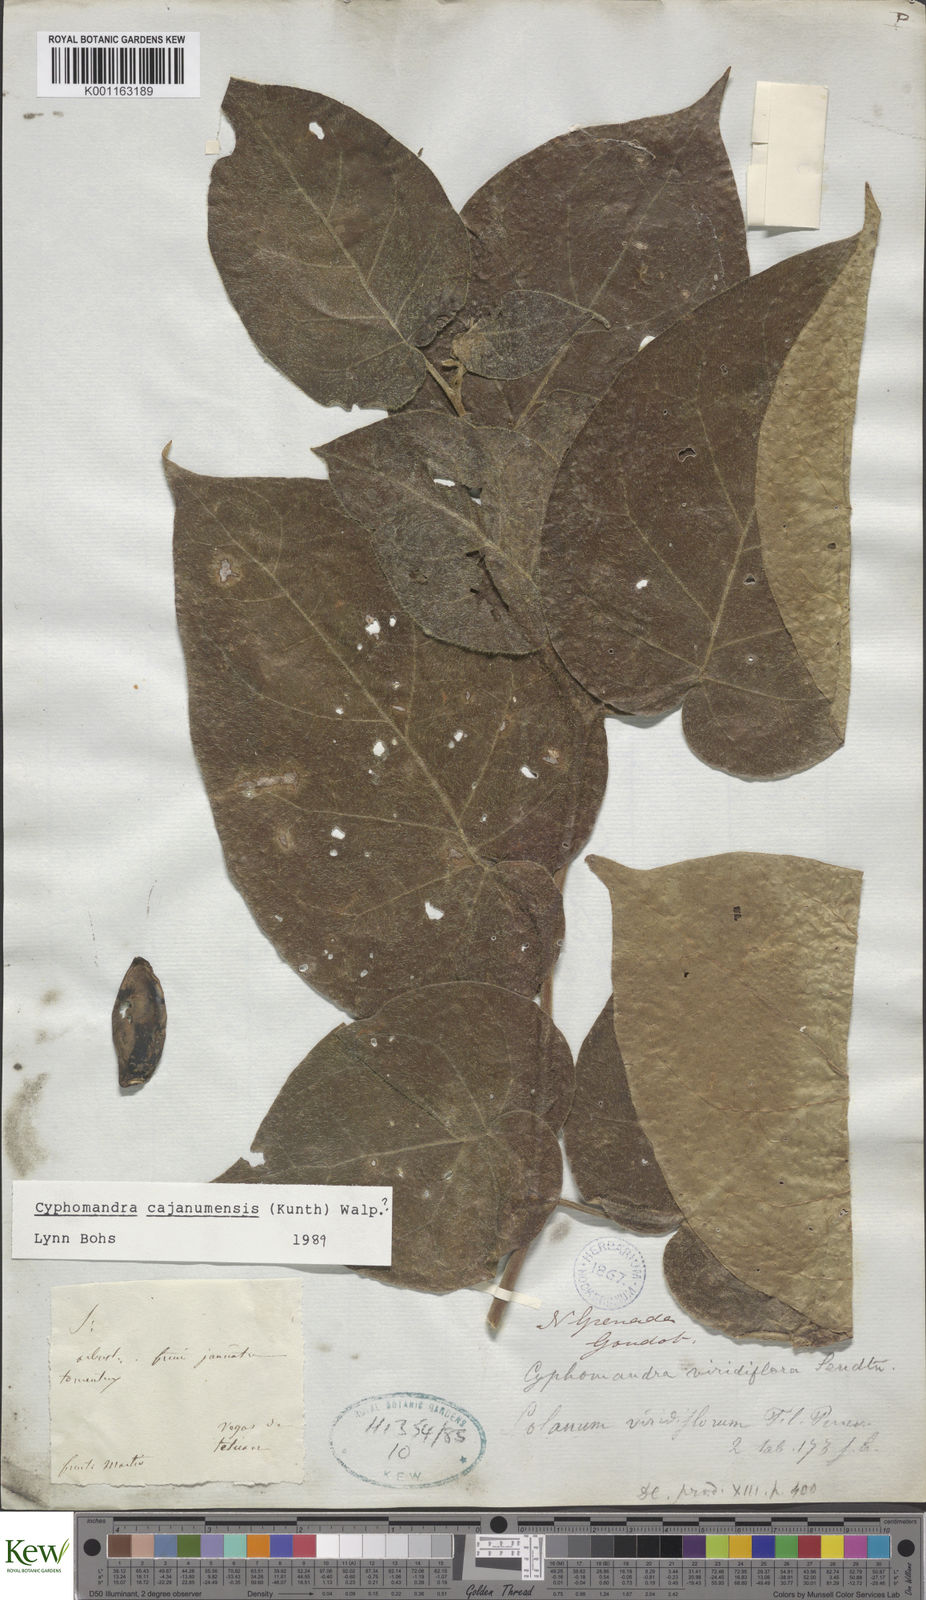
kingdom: Plantae
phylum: Tracheophyta
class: Magnoliopsida
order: Solanales
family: Solanaceae
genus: Solanum
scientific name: Solanum cajanumense
